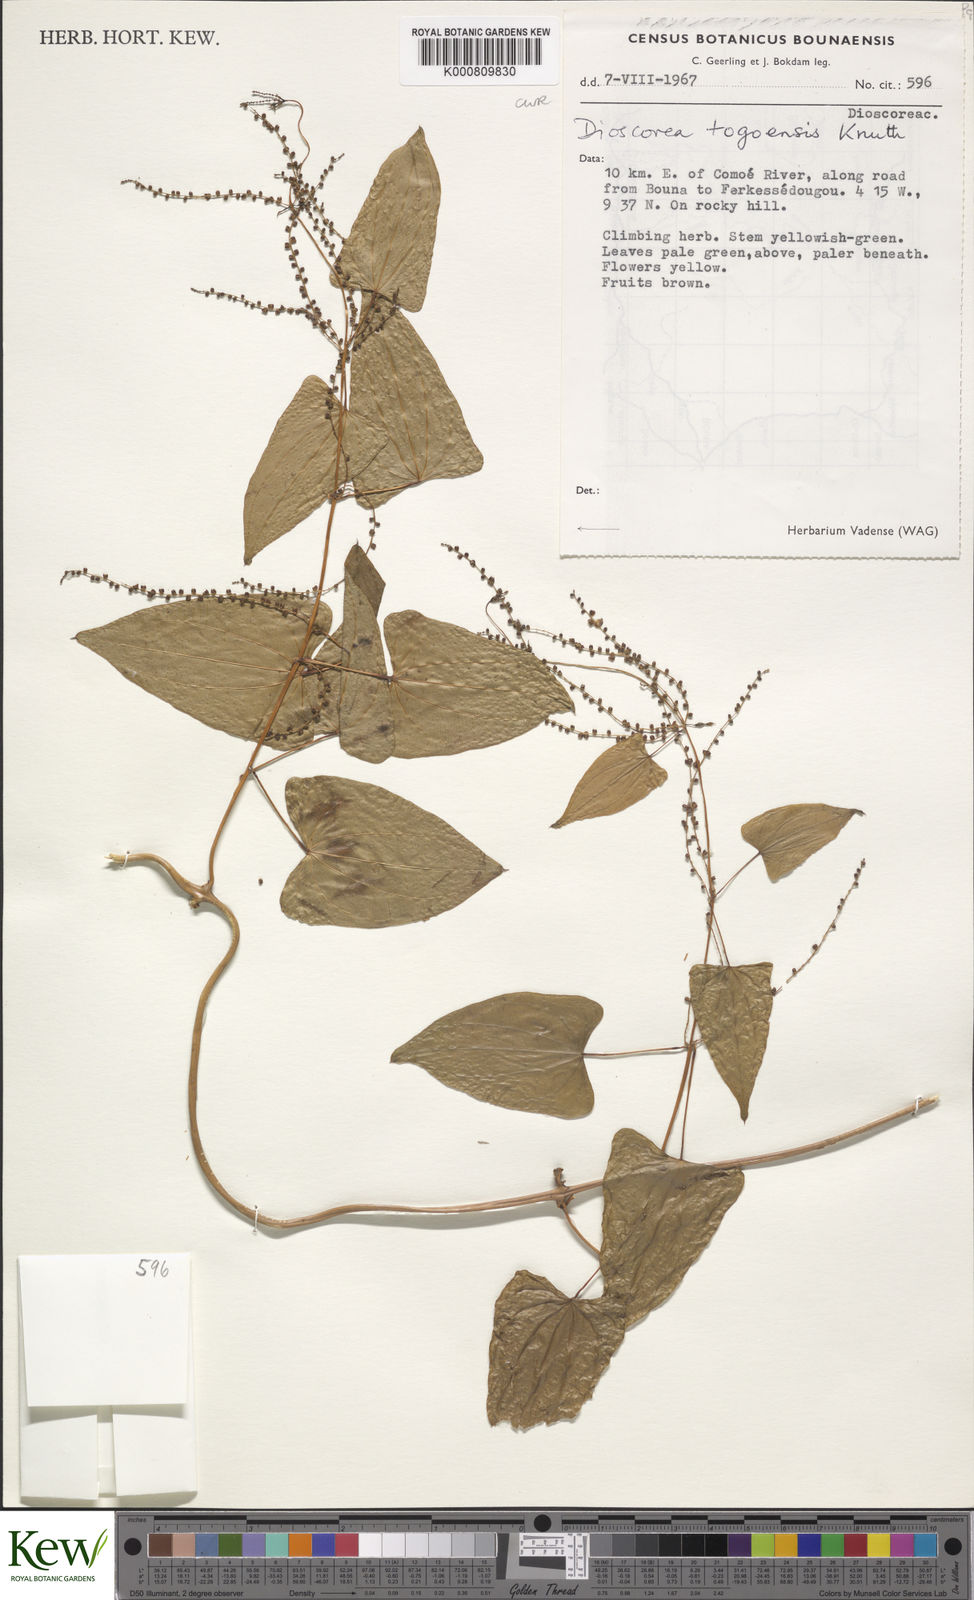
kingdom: Plantae
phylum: Tracheophyta
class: Liliopsida
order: Dioscoreales
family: Dioscoreaceae
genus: Dioscorea
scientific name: Dioscorea togoensis
